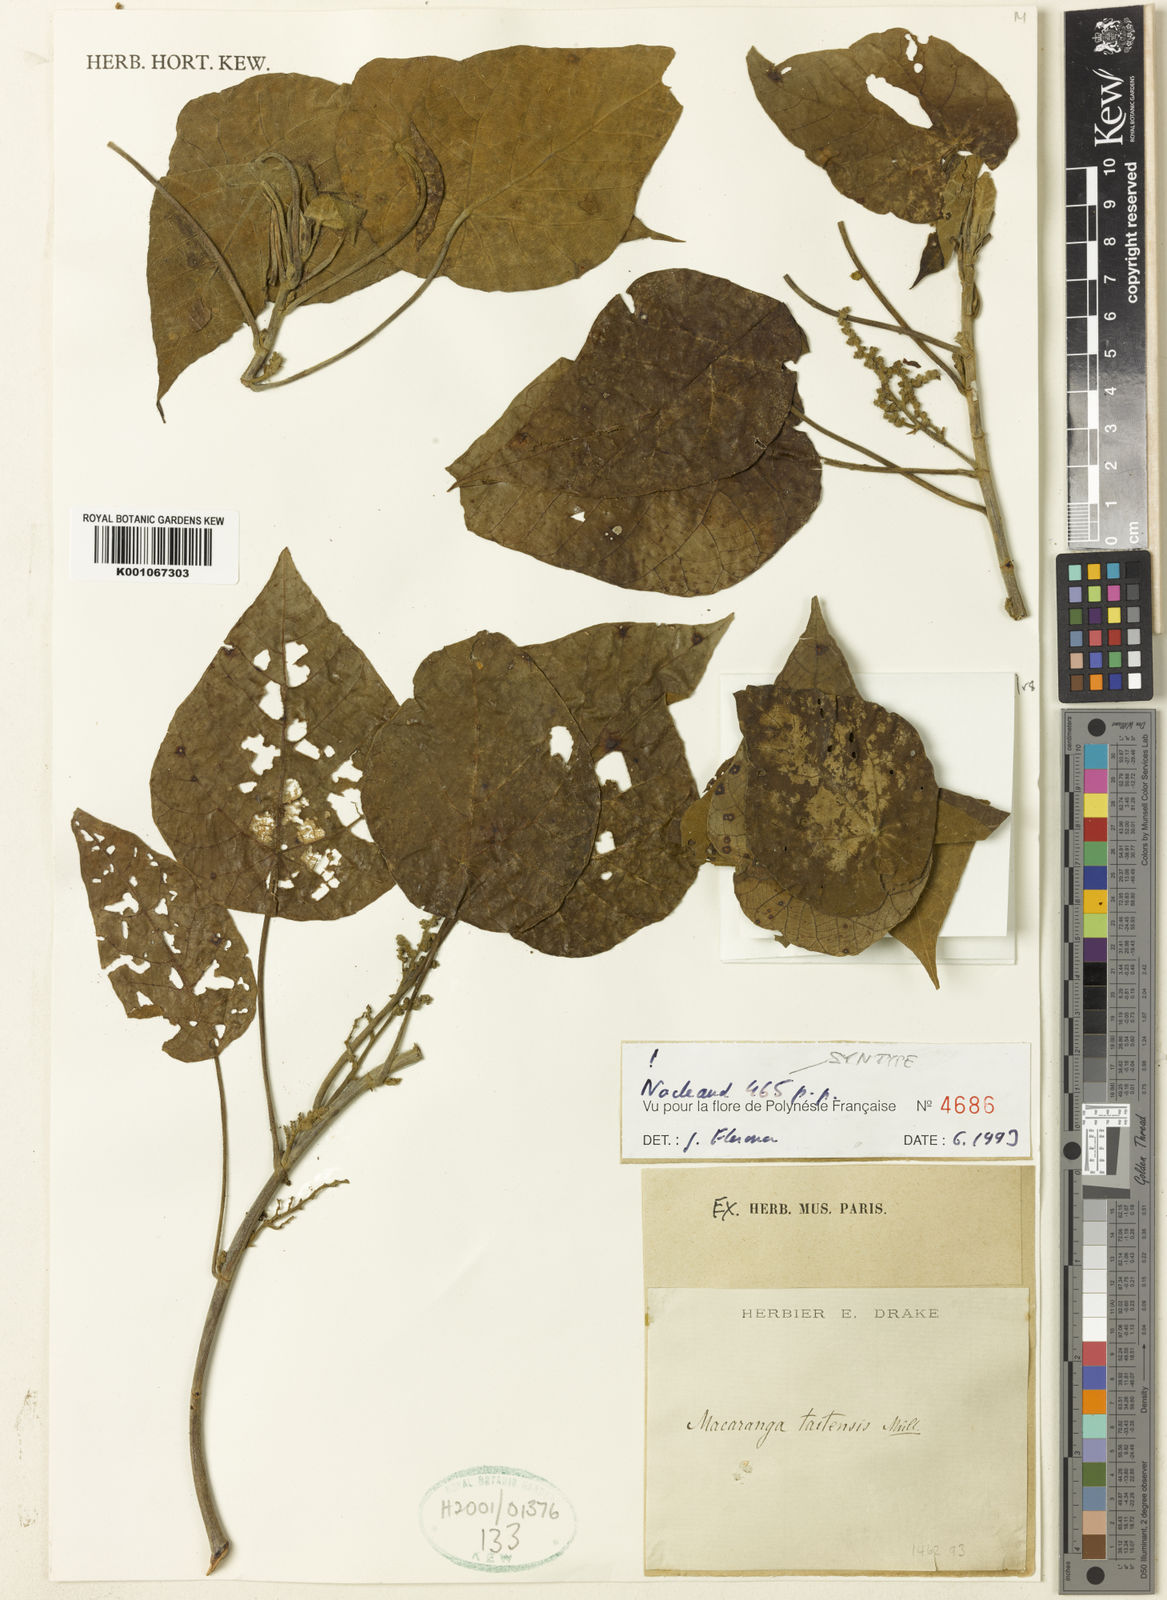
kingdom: Plantae
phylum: Tracheophyta
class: Magnoliopsida
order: Malpighiales
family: Euphorbiaceae
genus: Macaranga
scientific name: Macaranga
